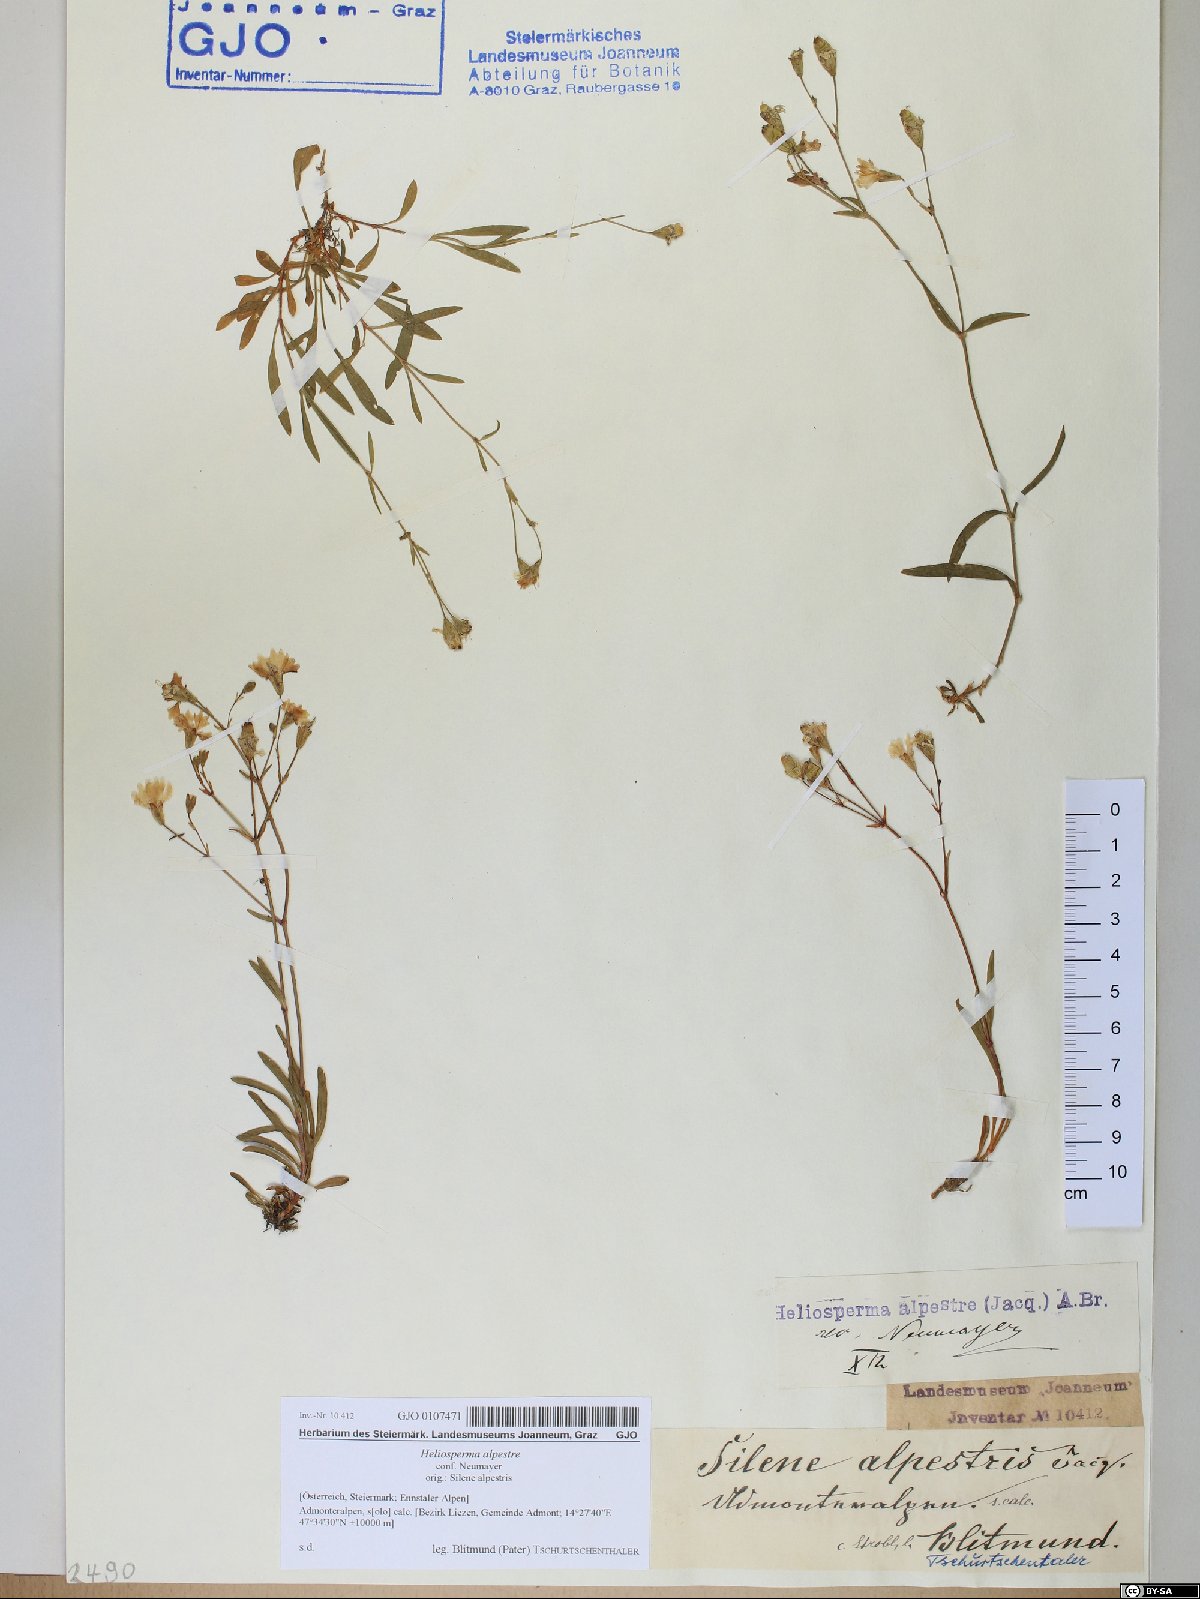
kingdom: Plantae
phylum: Tracheophyta
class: Magnoliopsida
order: Caryophyllales
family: Caryophyllaceae
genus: Heliosperma
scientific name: Heliosperma alpestre
